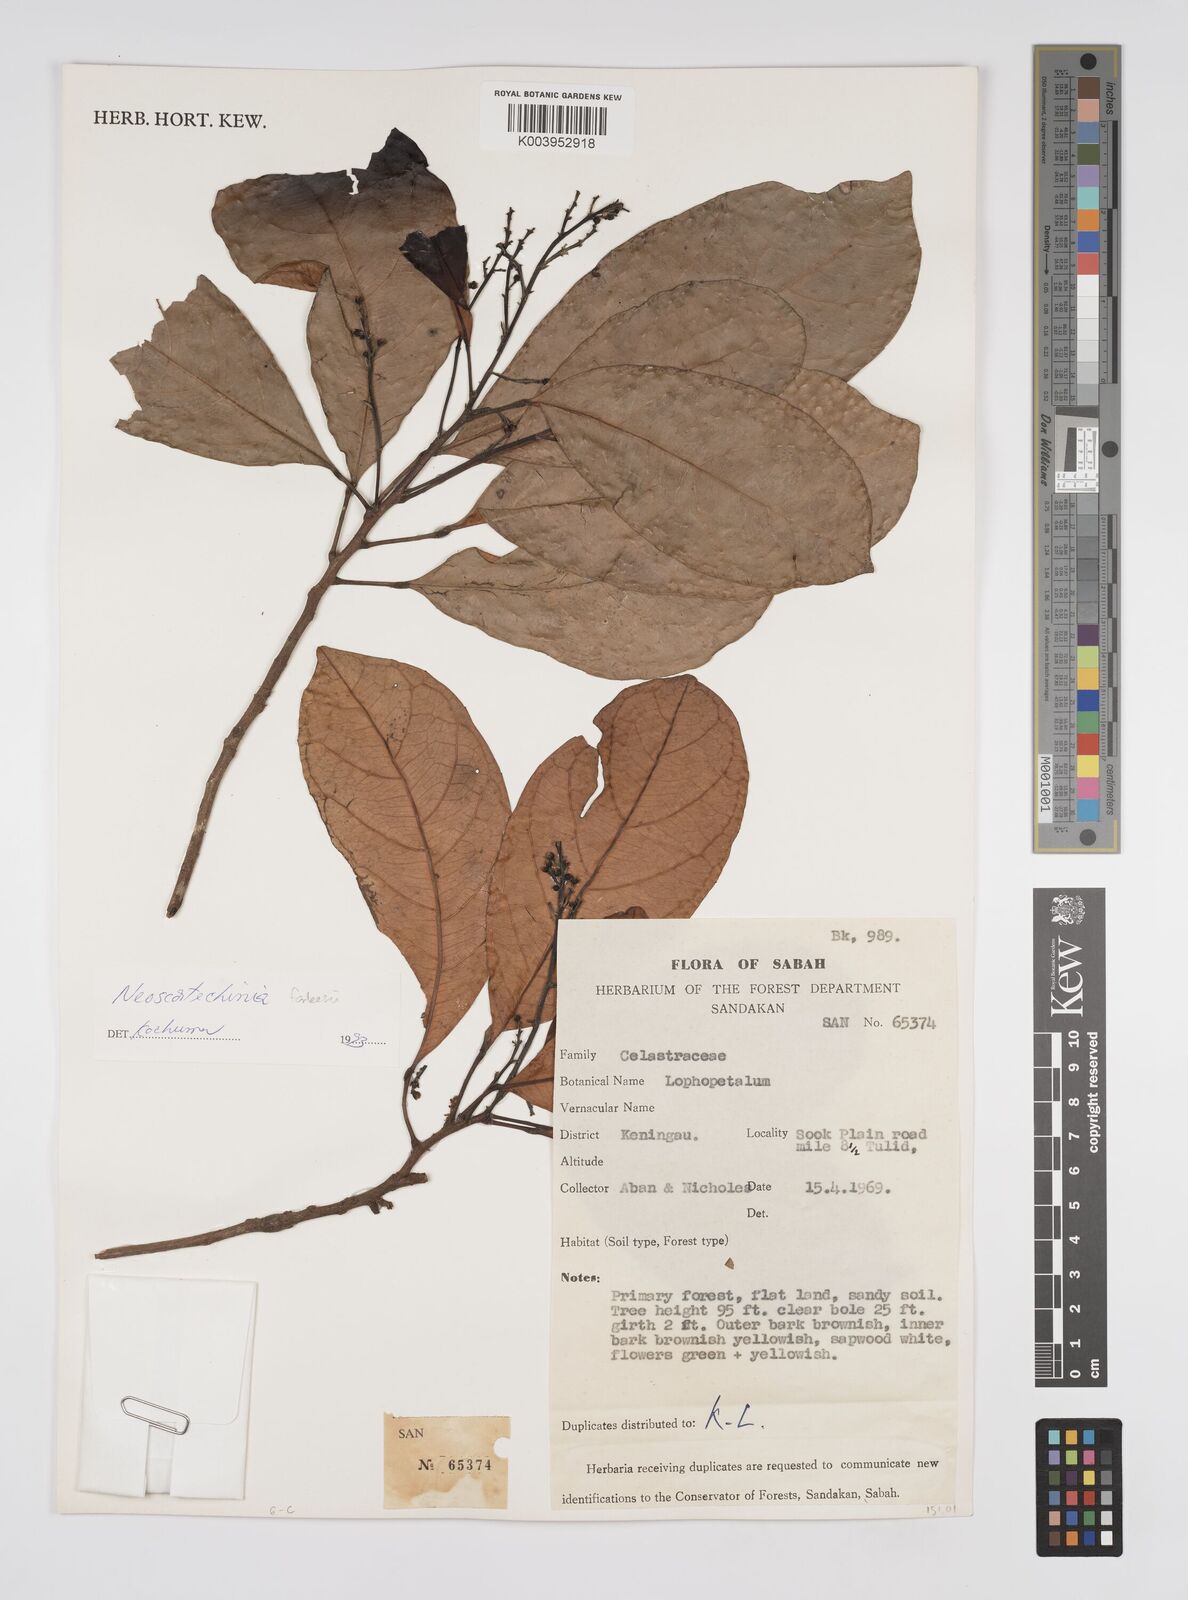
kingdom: Plantae
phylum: Tracheophyta
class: Magnoliopsida
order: Malpighiales
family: Euphorbiaceae
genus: Neoscortechinia
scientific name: Neoscortechinia philippinensis
